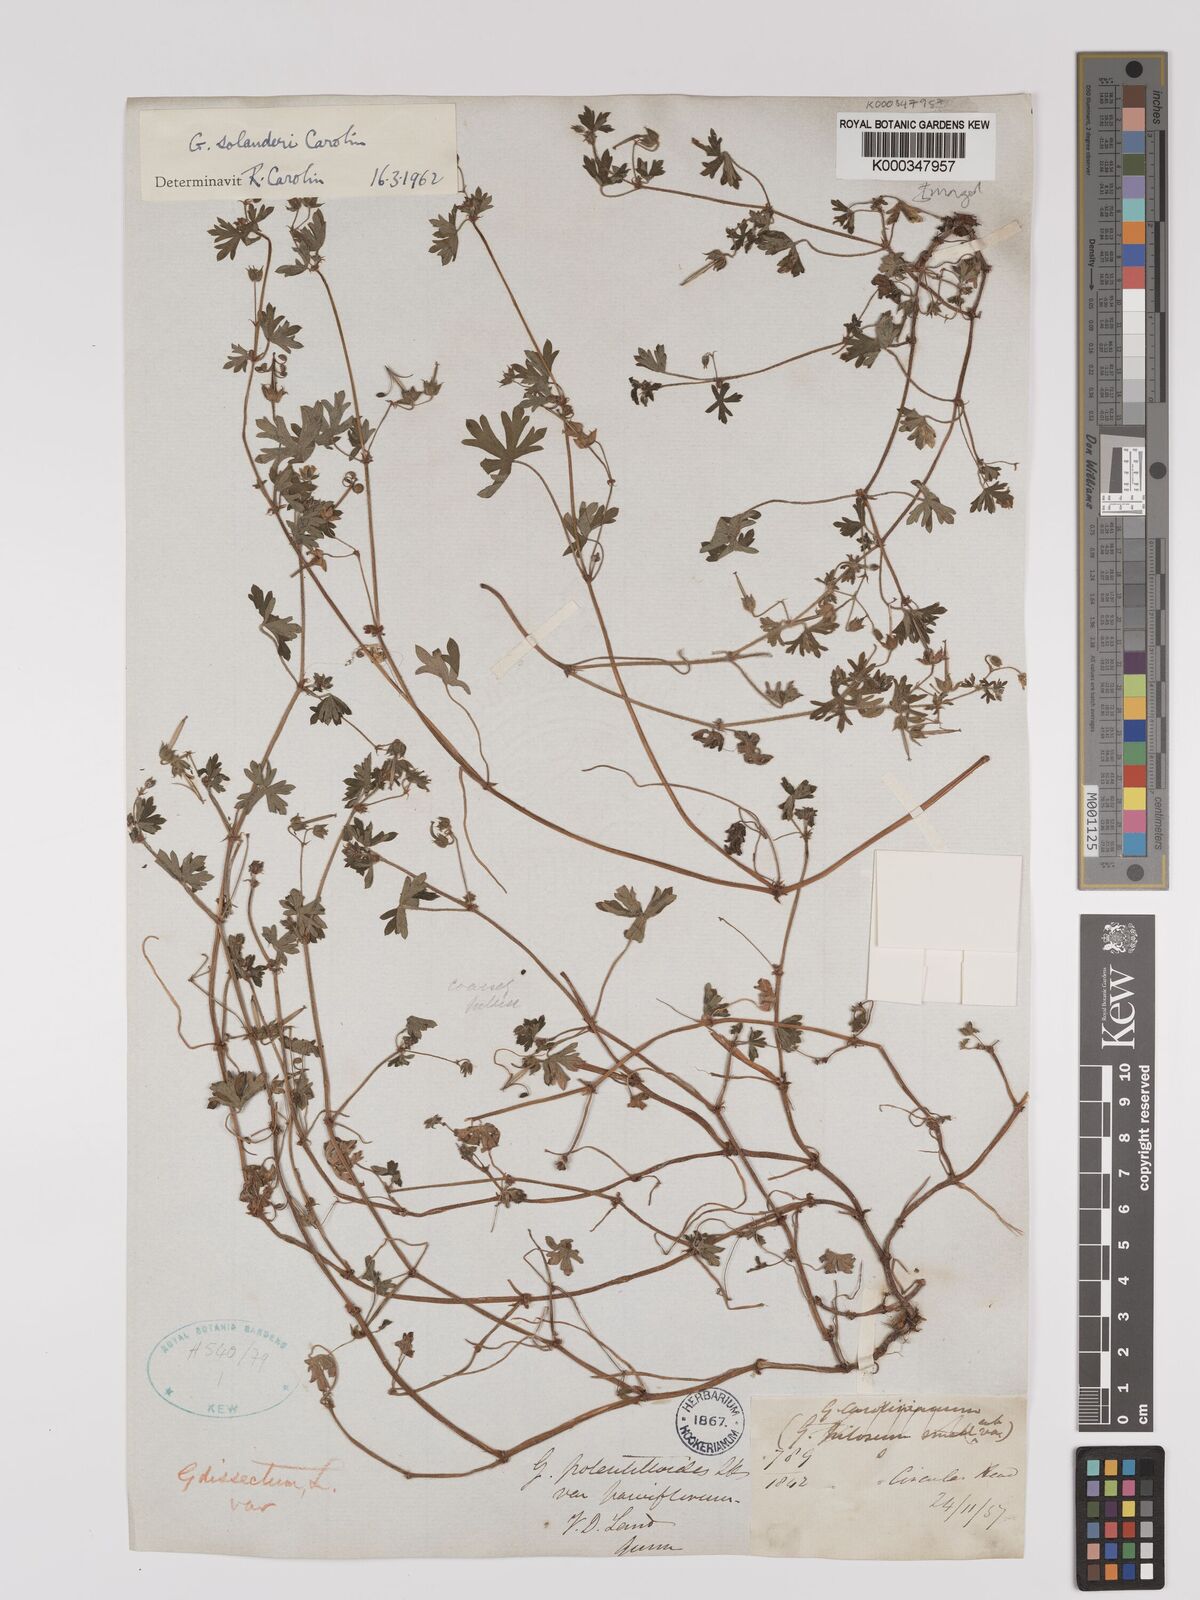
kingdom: Plantae
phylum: Tracheophyta
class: Magnoliopsida
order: Geraniales
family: Geraniaceae
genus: Geranium
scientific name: Geranium solanderi
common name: Solander's geranium
